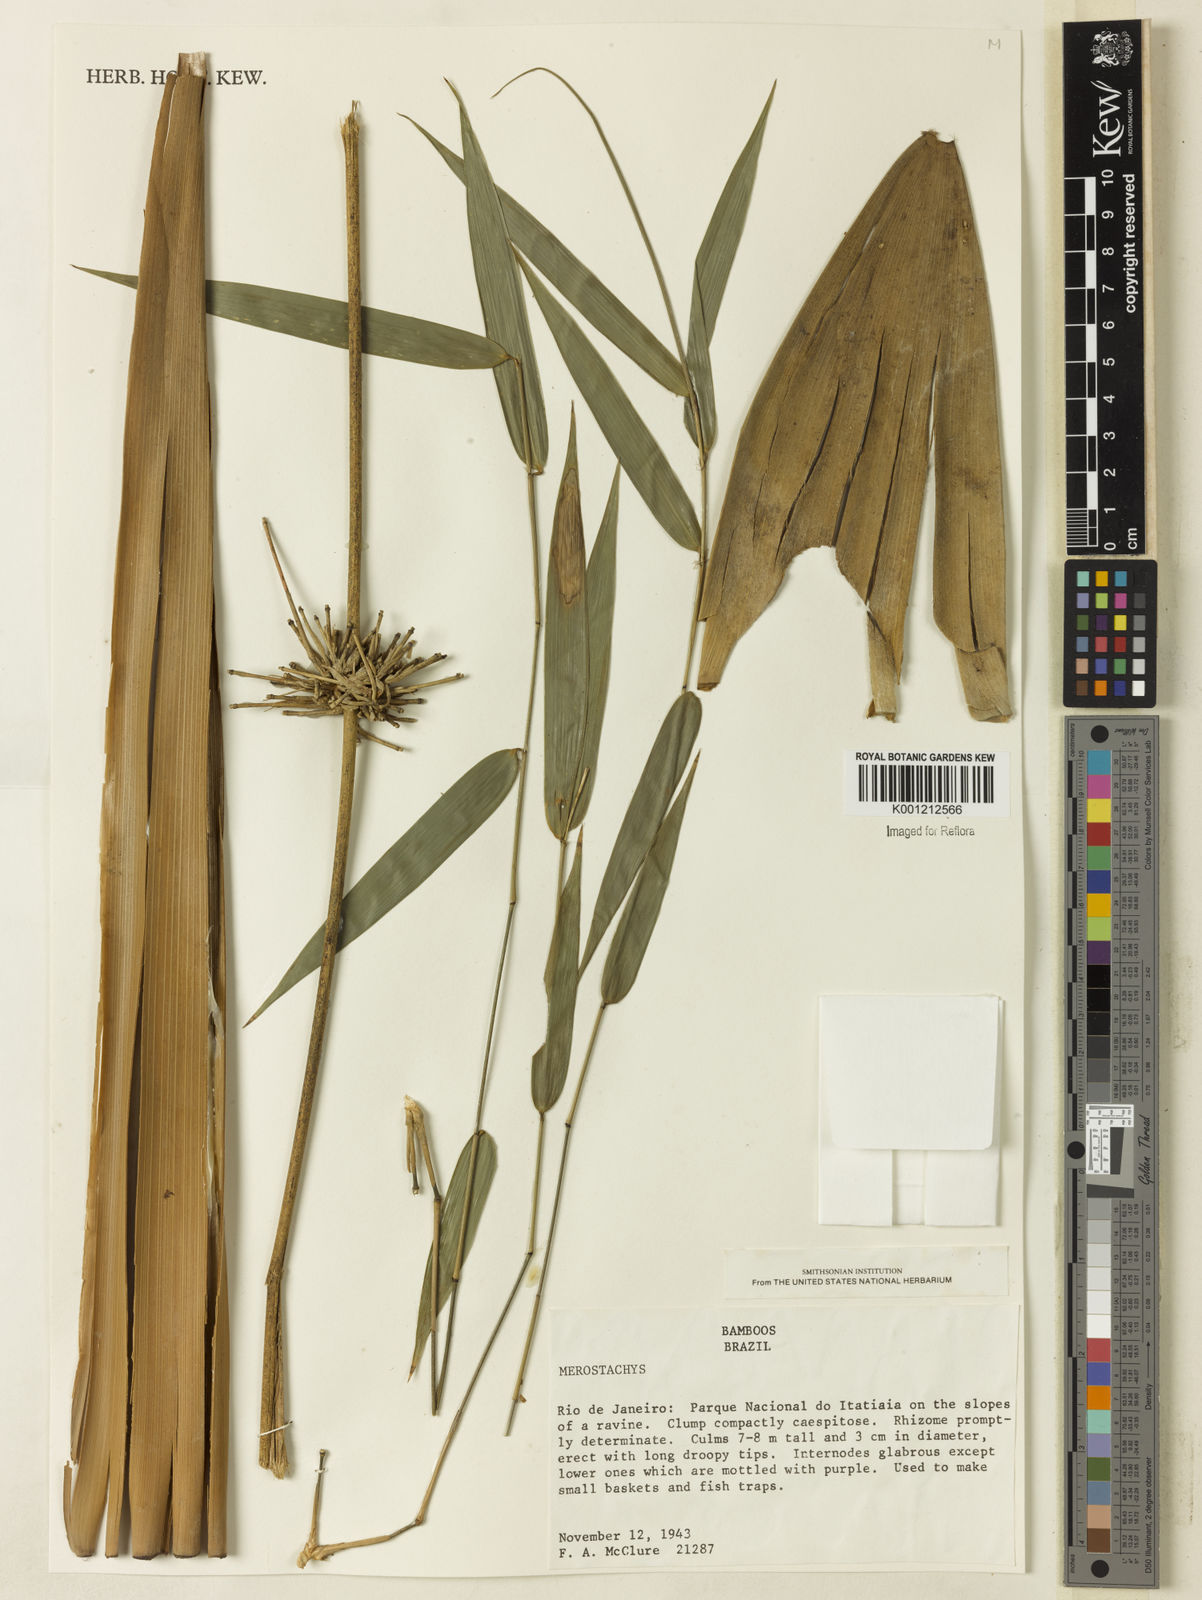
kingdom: Plantae
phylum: Tracheophyta
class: Liliopsida
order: Poales
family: Poaceae
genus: Merostachys
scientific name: Merostachys
